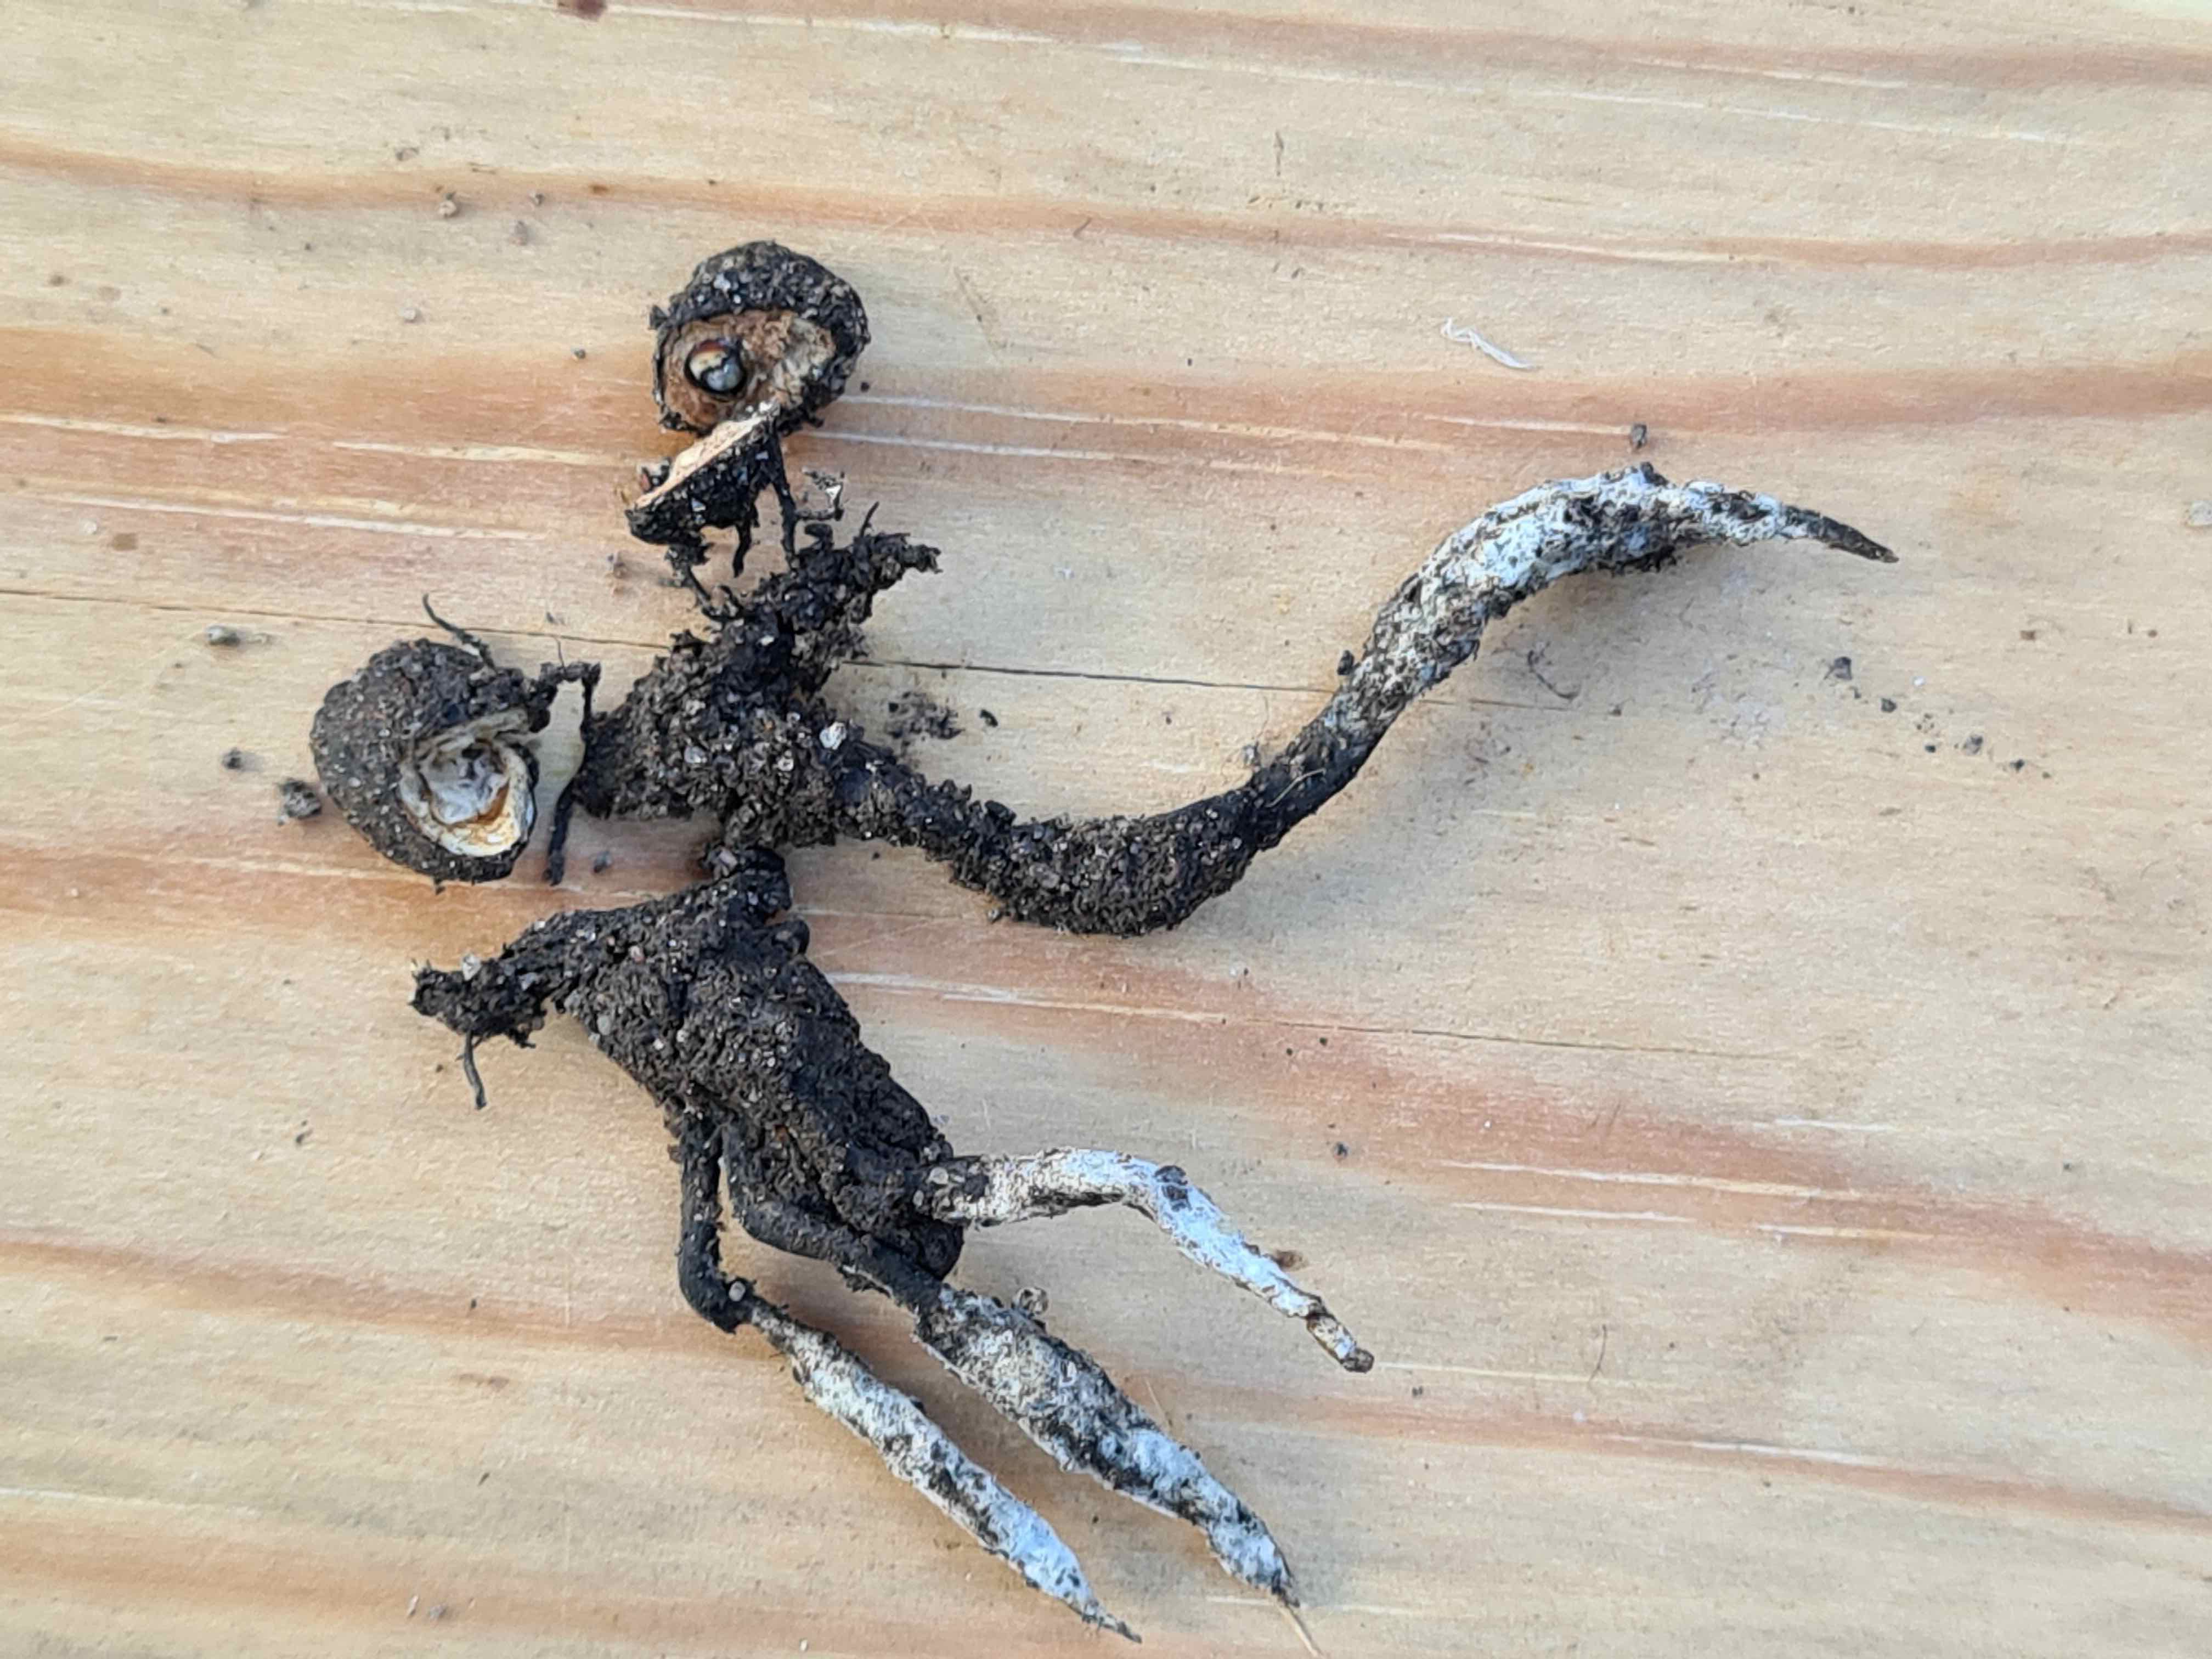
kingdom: Fungi
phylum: Ascomycota
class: Sordariomycetes
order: Xylariales
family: Xylariaceae
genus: Xylaria
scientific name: Xylaria oxyacanthae
